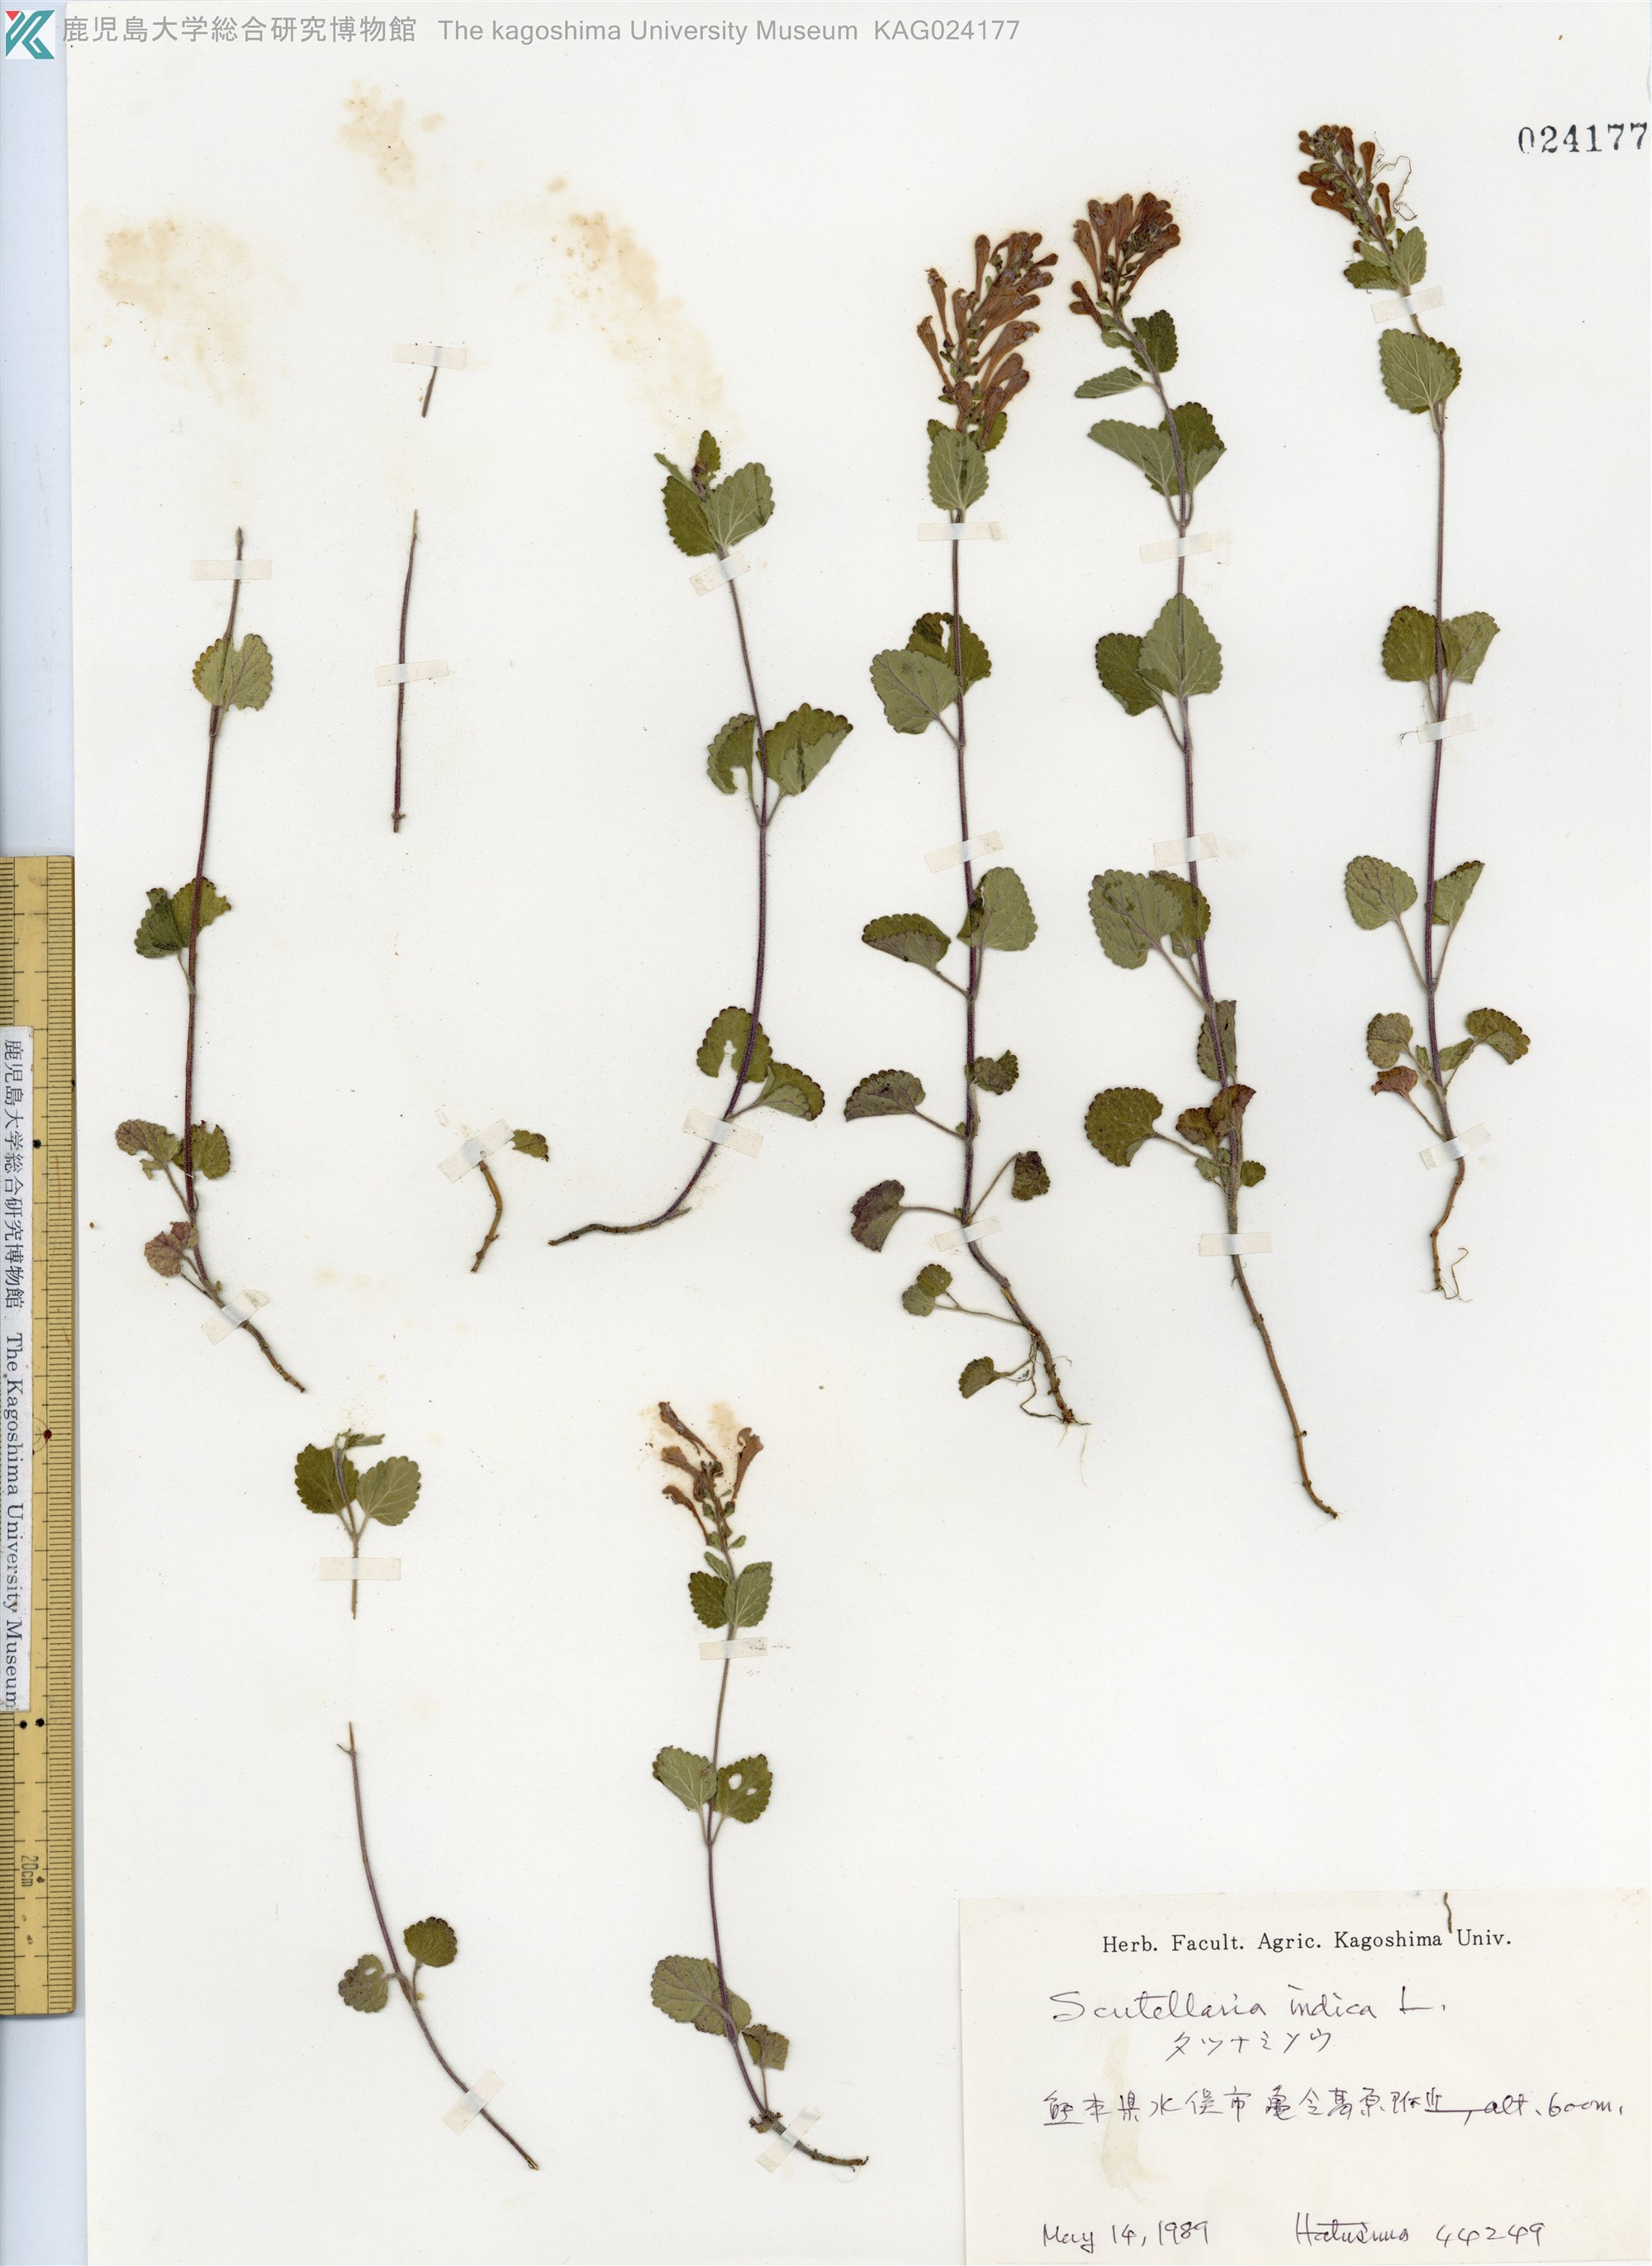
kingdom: Plantae
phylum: Tracheophyta
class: Magnoliopsida
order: Lamiales
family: Lamiaceae
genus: Scutellaria
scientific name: Scutellaria indica
